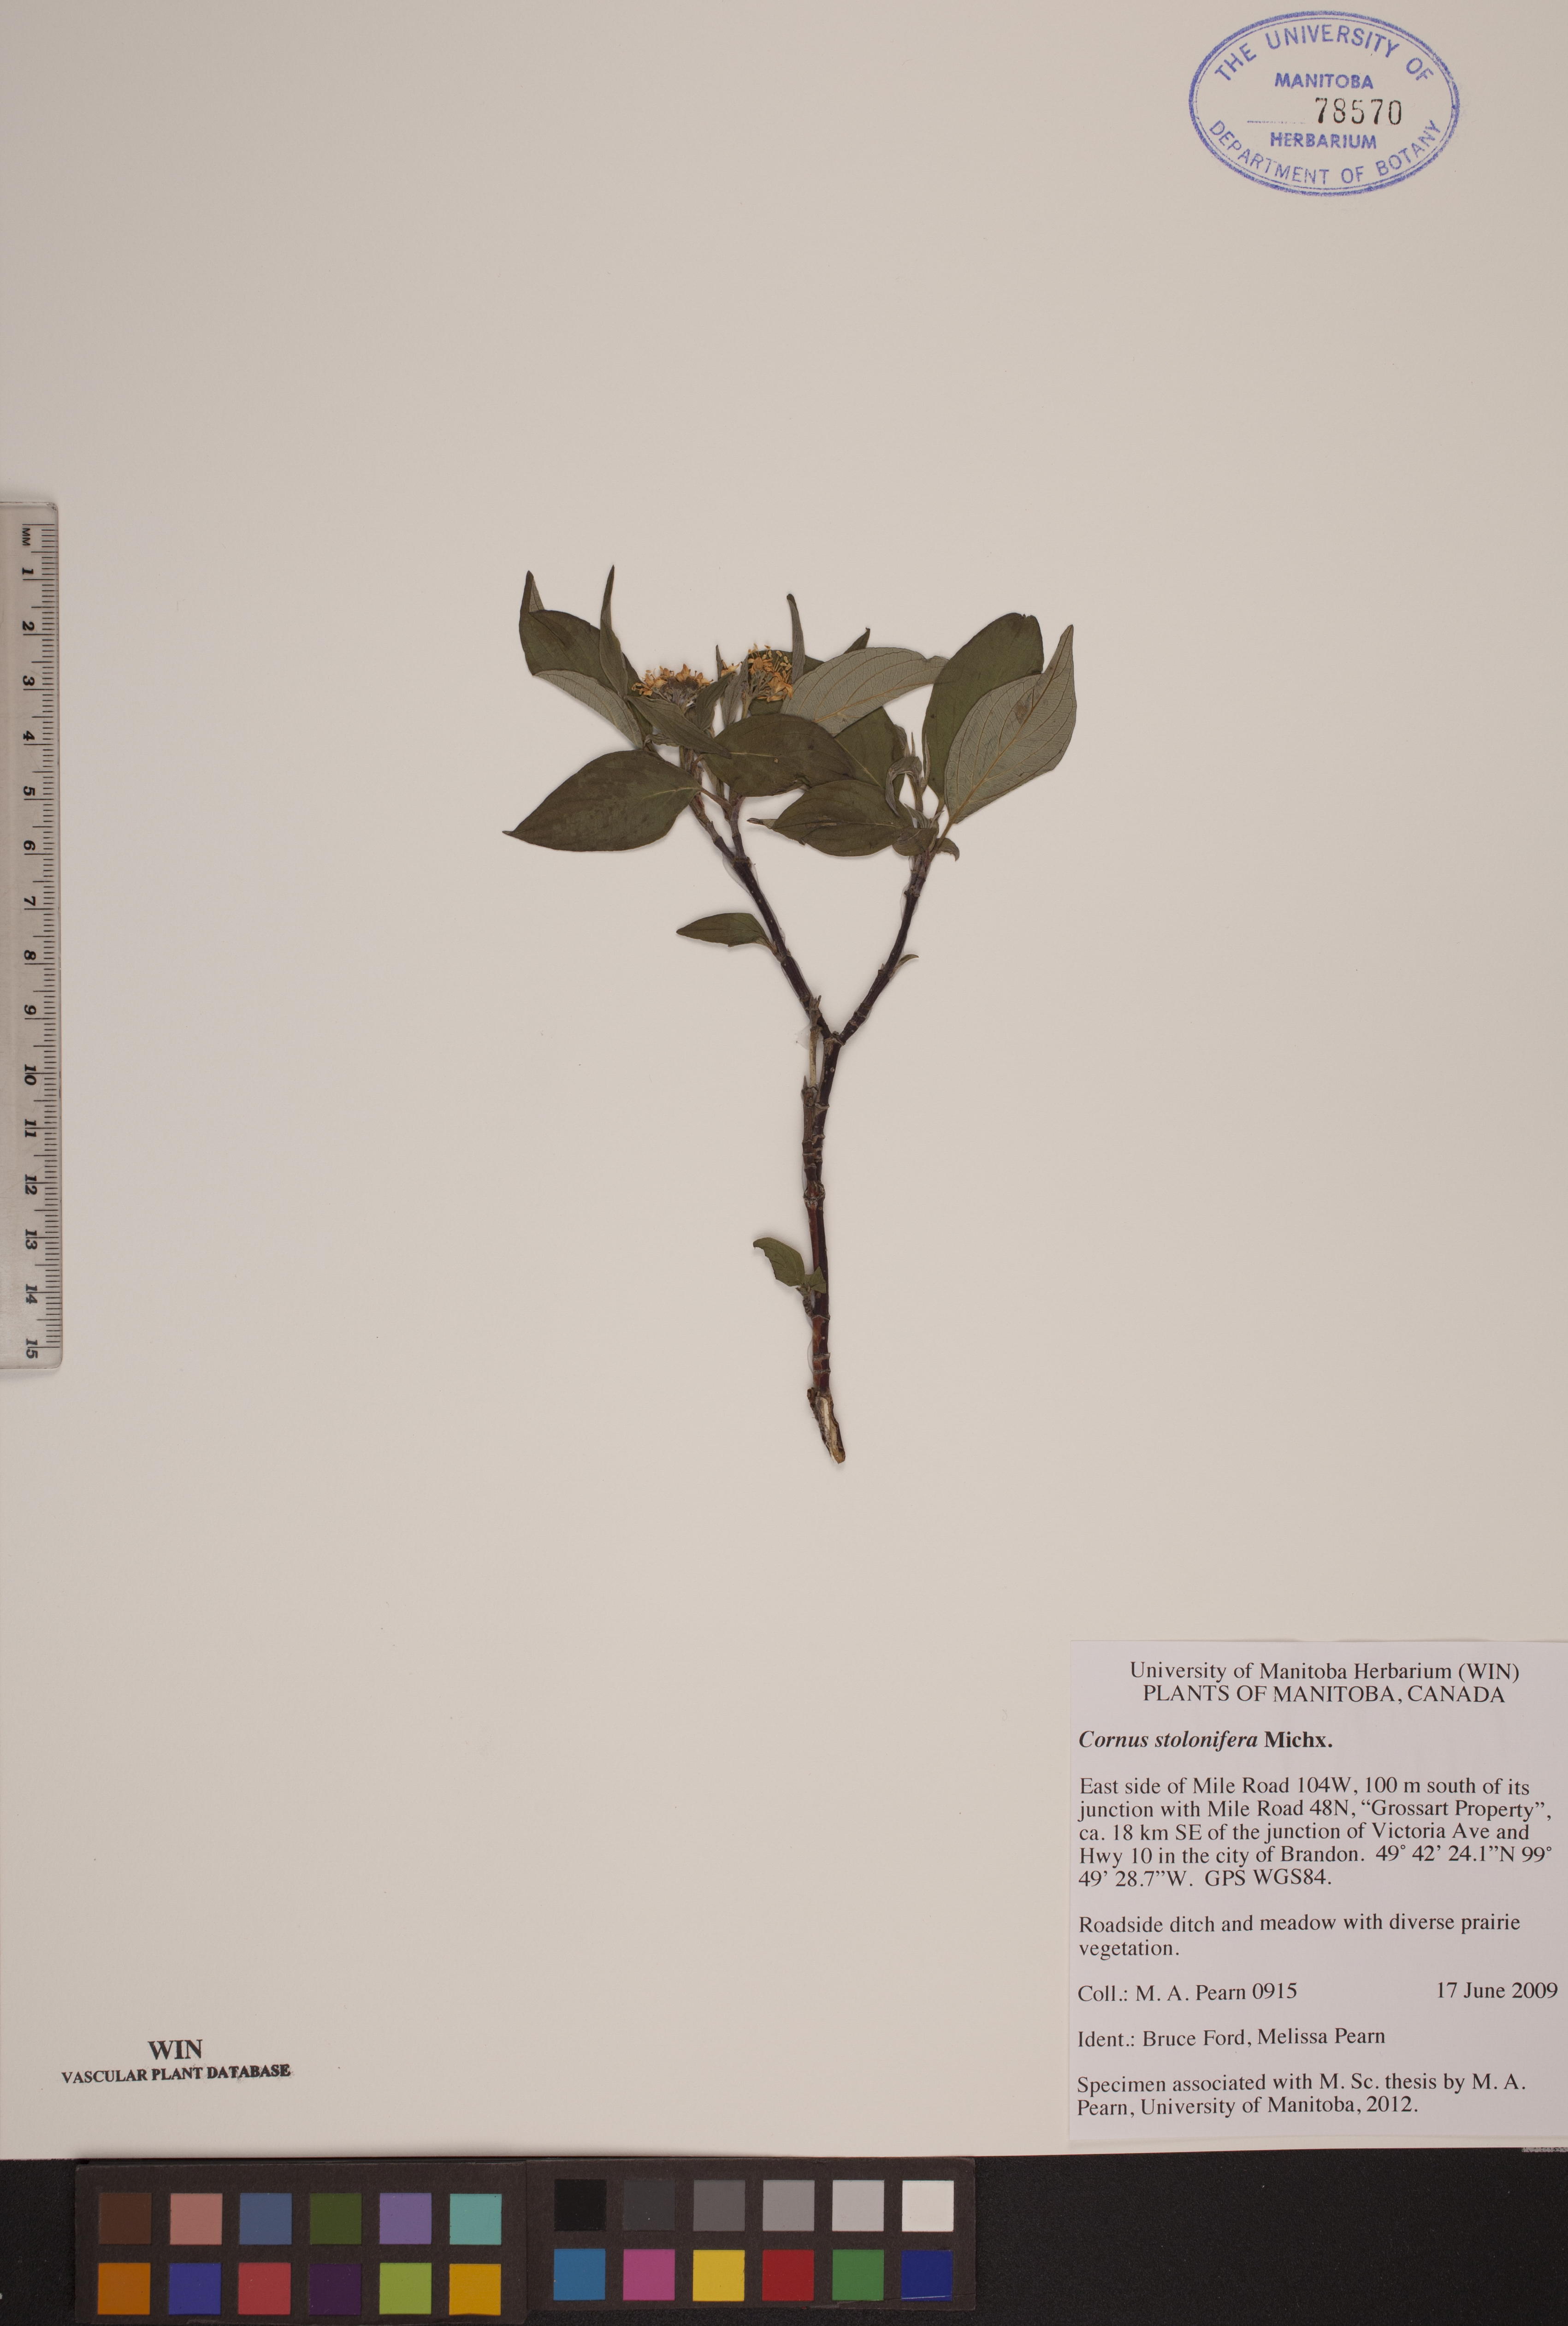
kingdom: Plantae
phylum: Tracheophyta
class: Magnoliopsida
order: Cornales
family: Cornaceae
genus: Cornus
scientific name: Cornus sericea
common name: Red-osier dogwood
